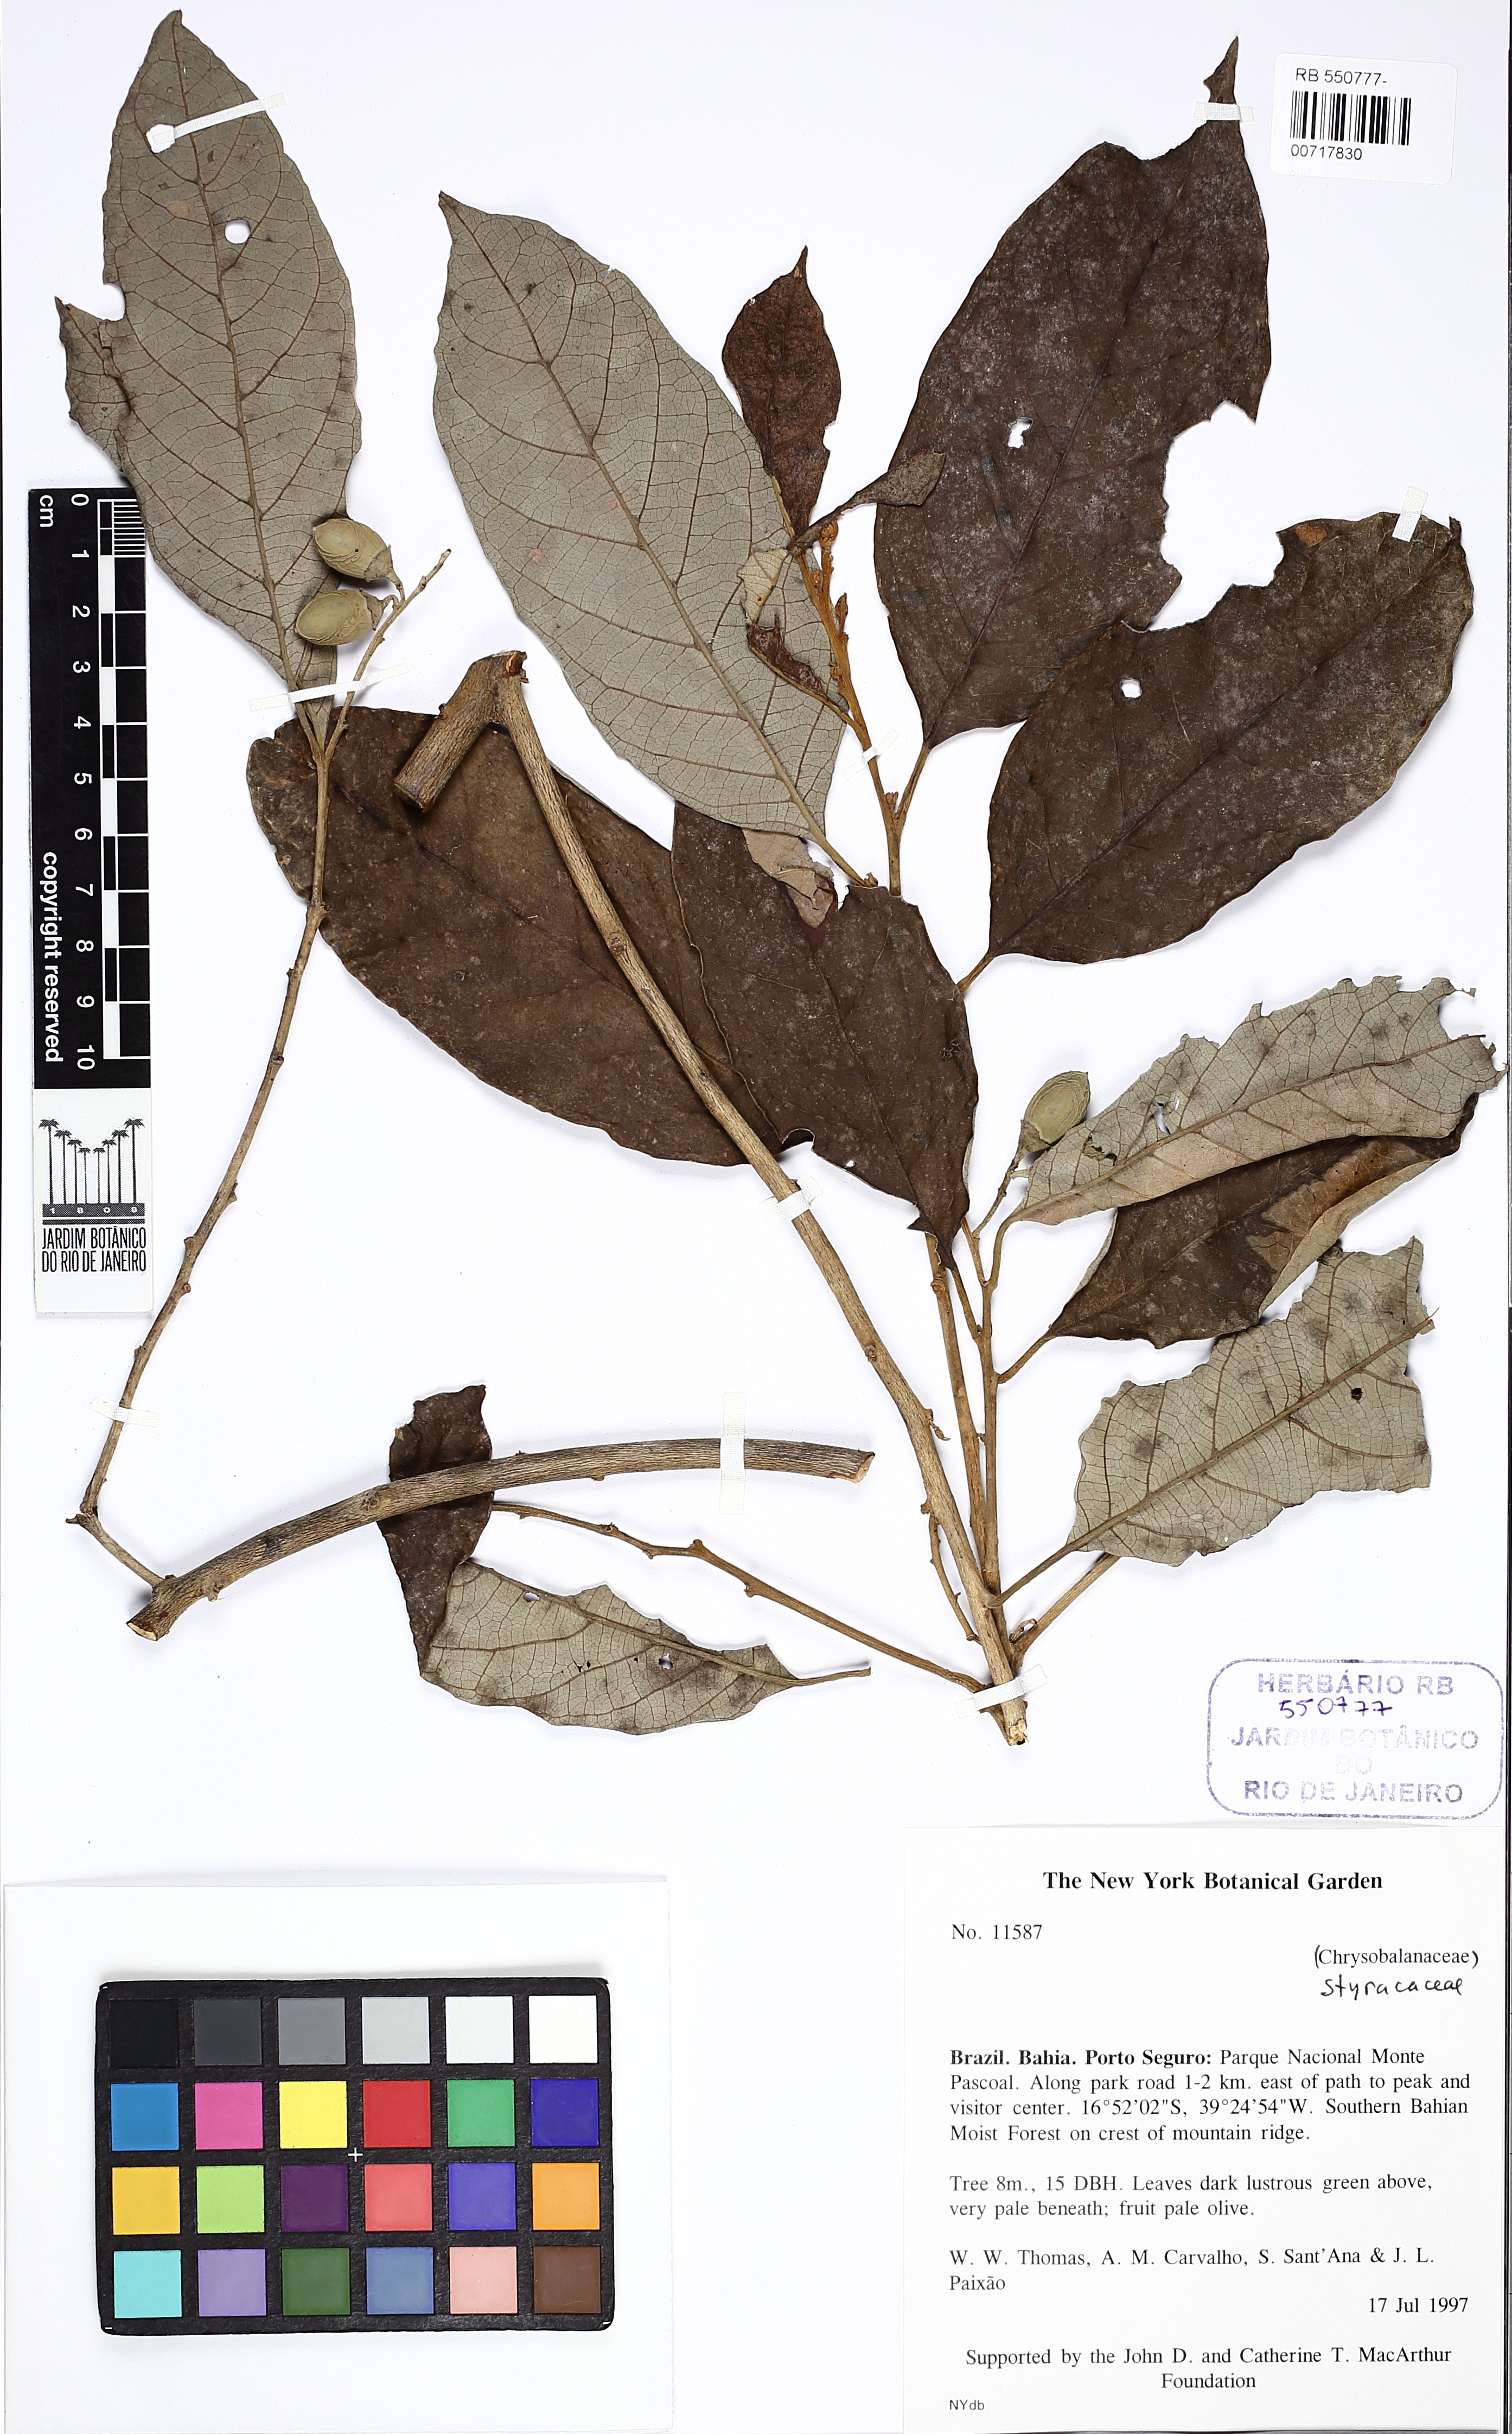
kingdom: Plantae
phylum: Tracheophyta
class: Magnoliopsida
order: Ericales
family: Styracaceae
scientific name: Styracaceae
